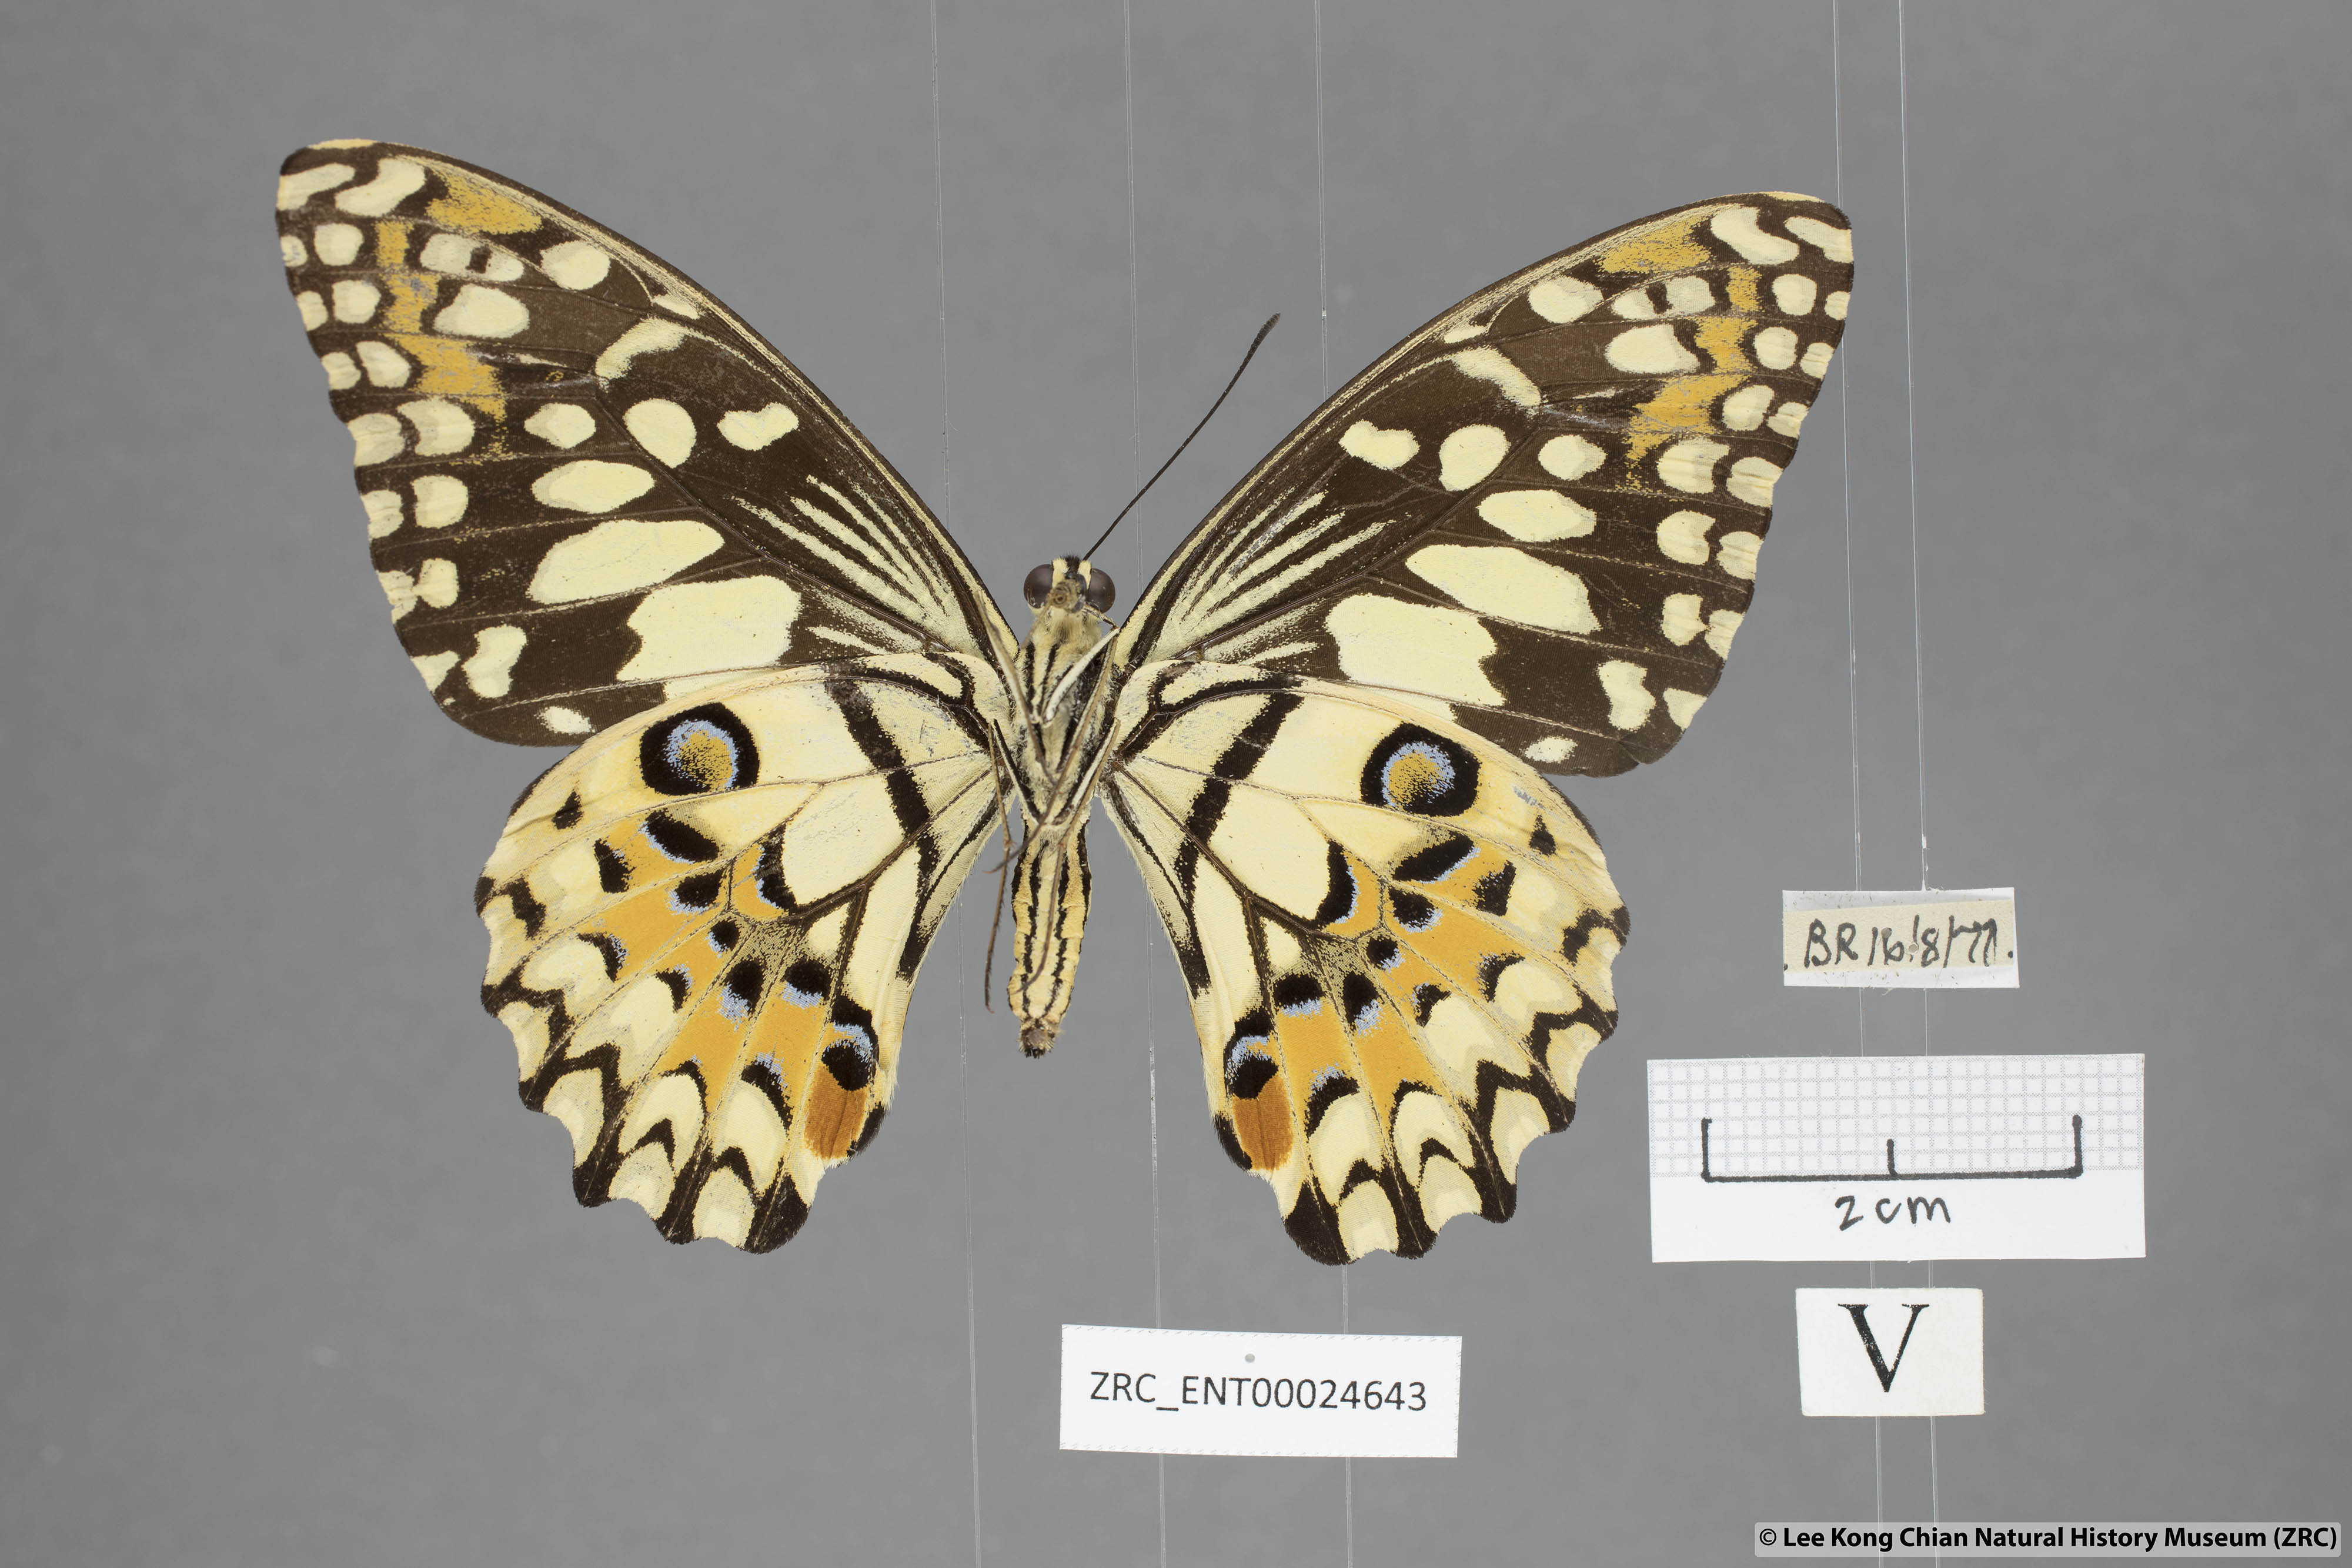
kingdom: Animalia
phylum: Arthropoda
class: Insecta
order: Lepidoptera
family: Papilionidae
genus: Papilio
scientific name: Papilio demoleus
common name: Lime butterfly
